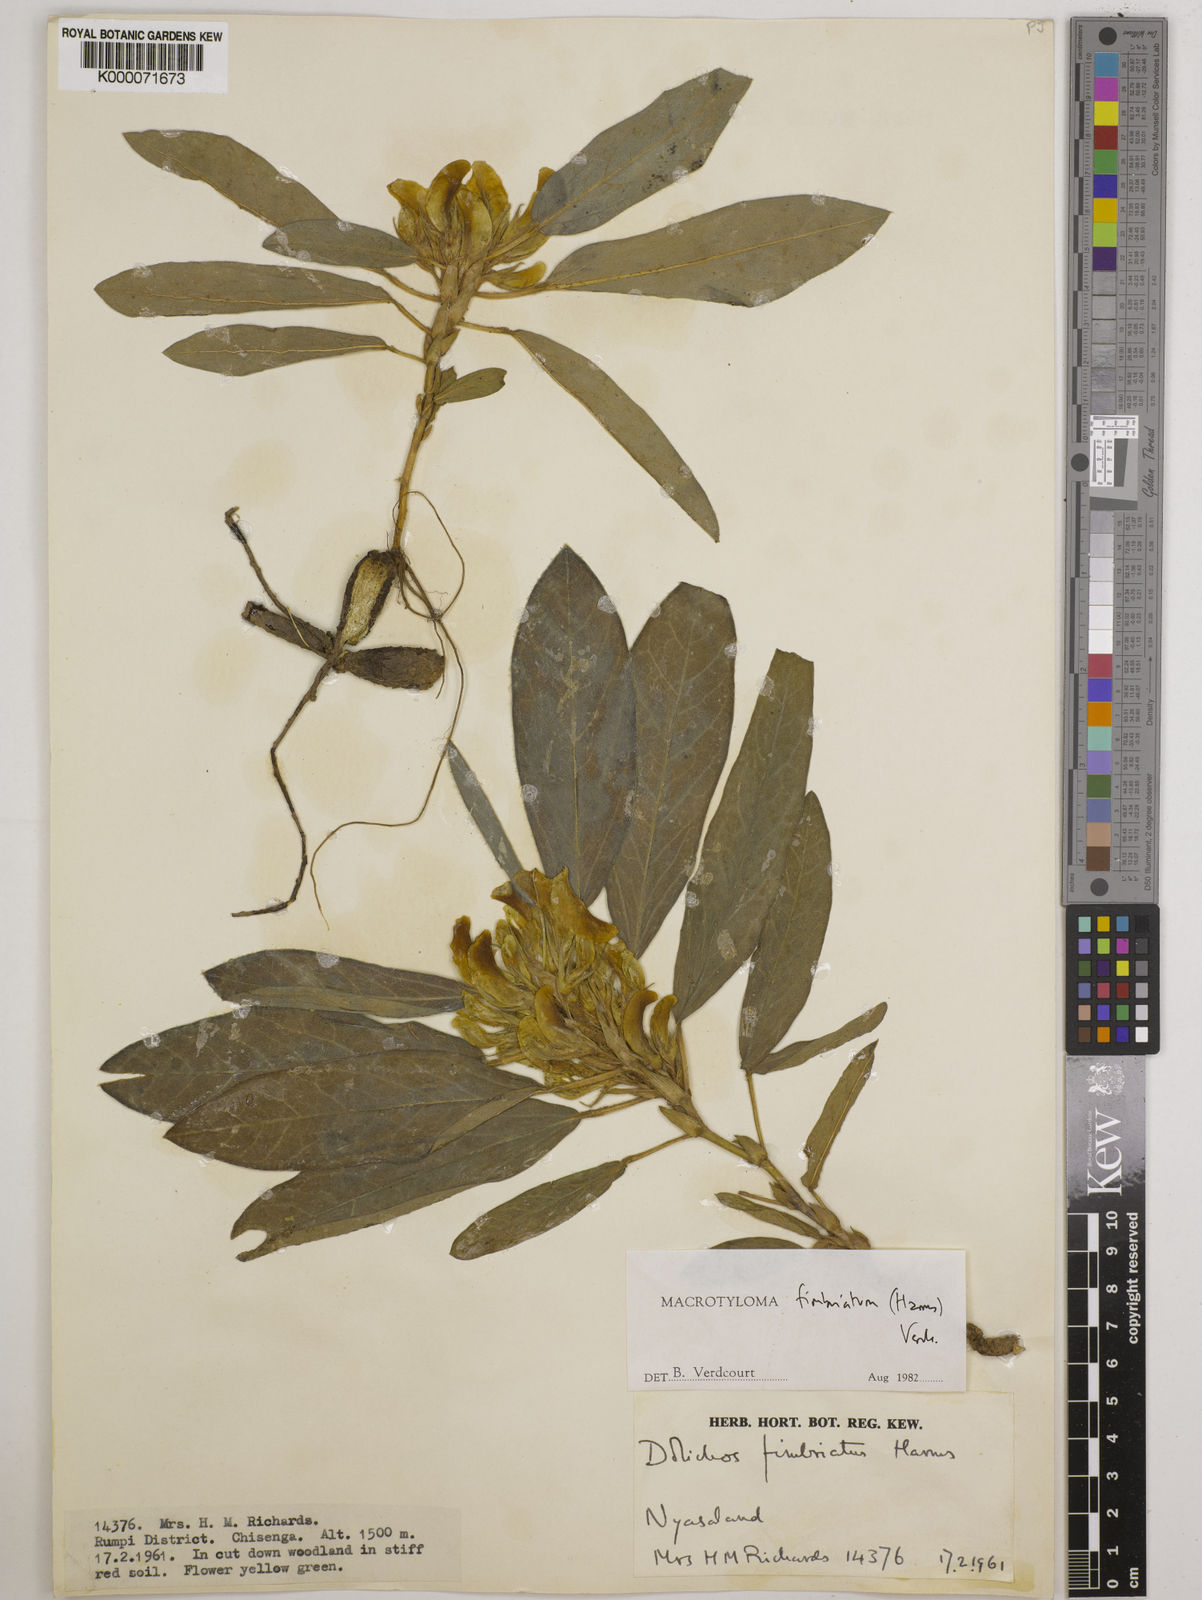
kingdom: Plantae
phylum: Tracheophyta
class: Magnoliopsida
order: Fabales
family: Fabaceae
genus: Macrotyloma
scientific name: Macrotyloma fimbriatum
